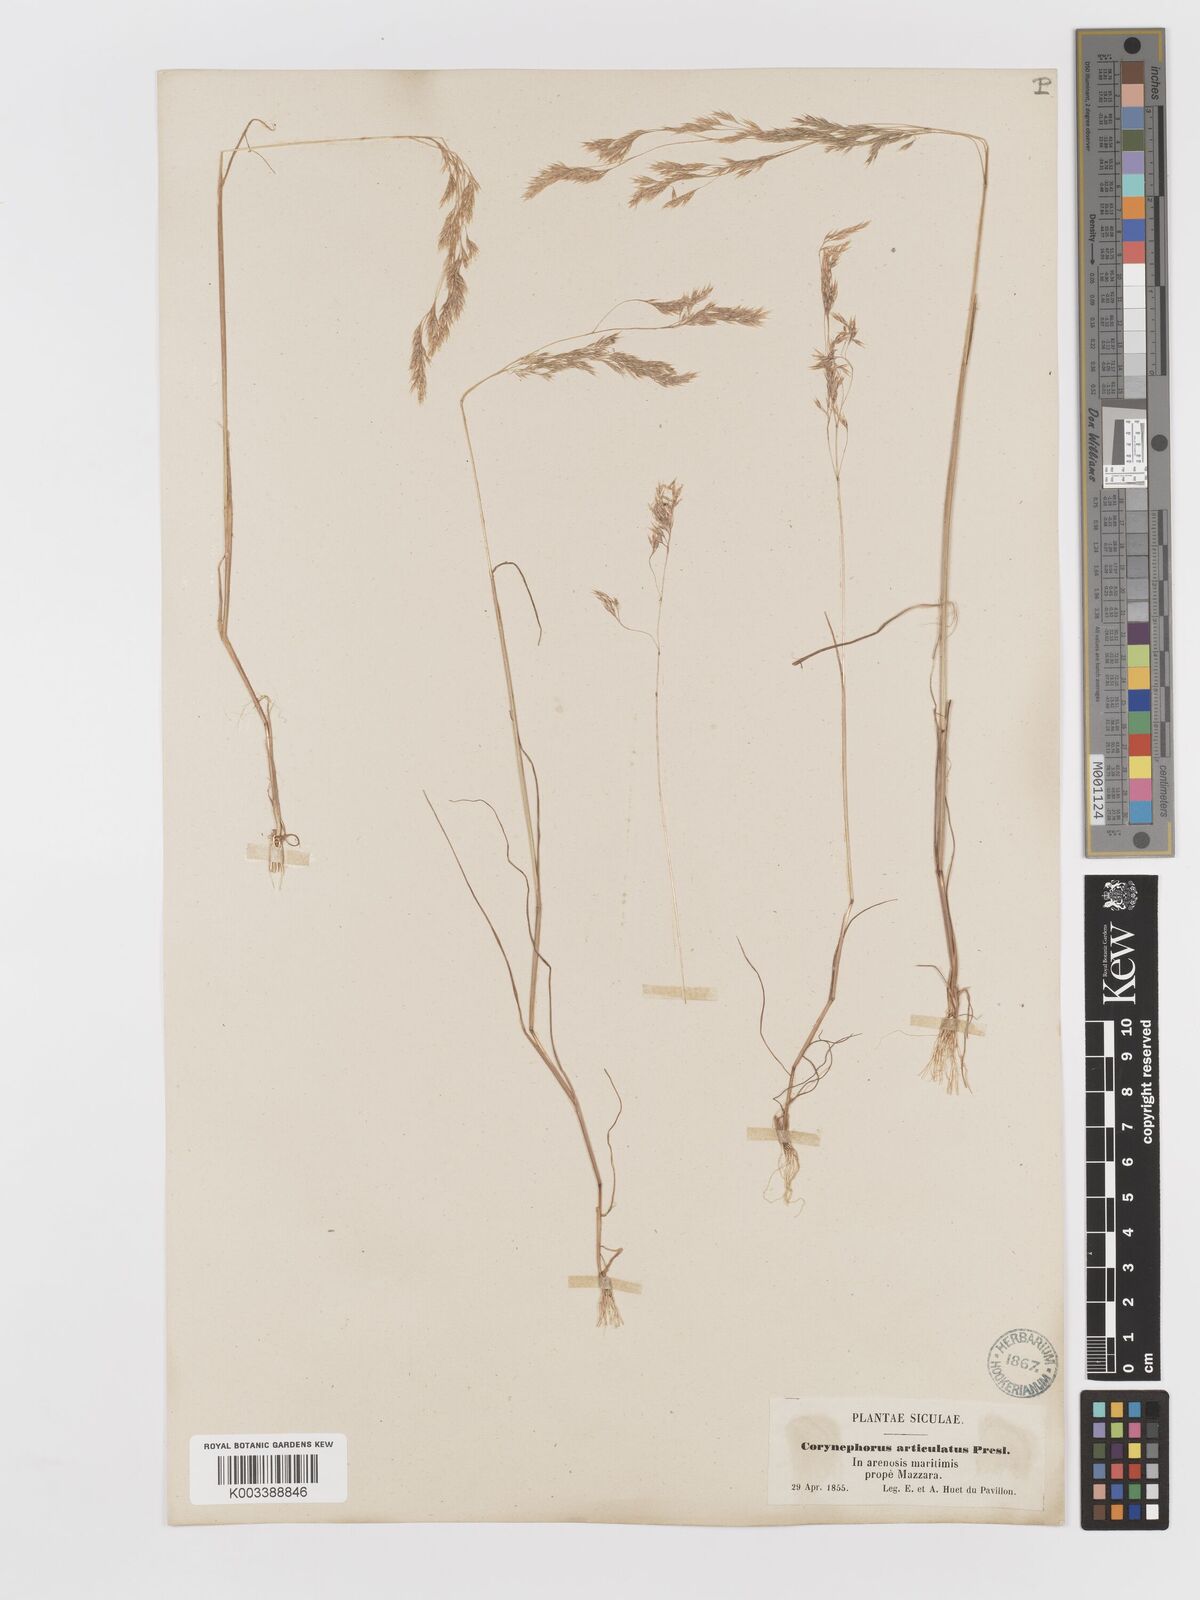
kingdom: Plantae
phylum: Tracheophyta
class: Liliopsida
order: Poales
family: Poaceae
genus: Corynephorus
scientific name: Corynephorus divaricatus
